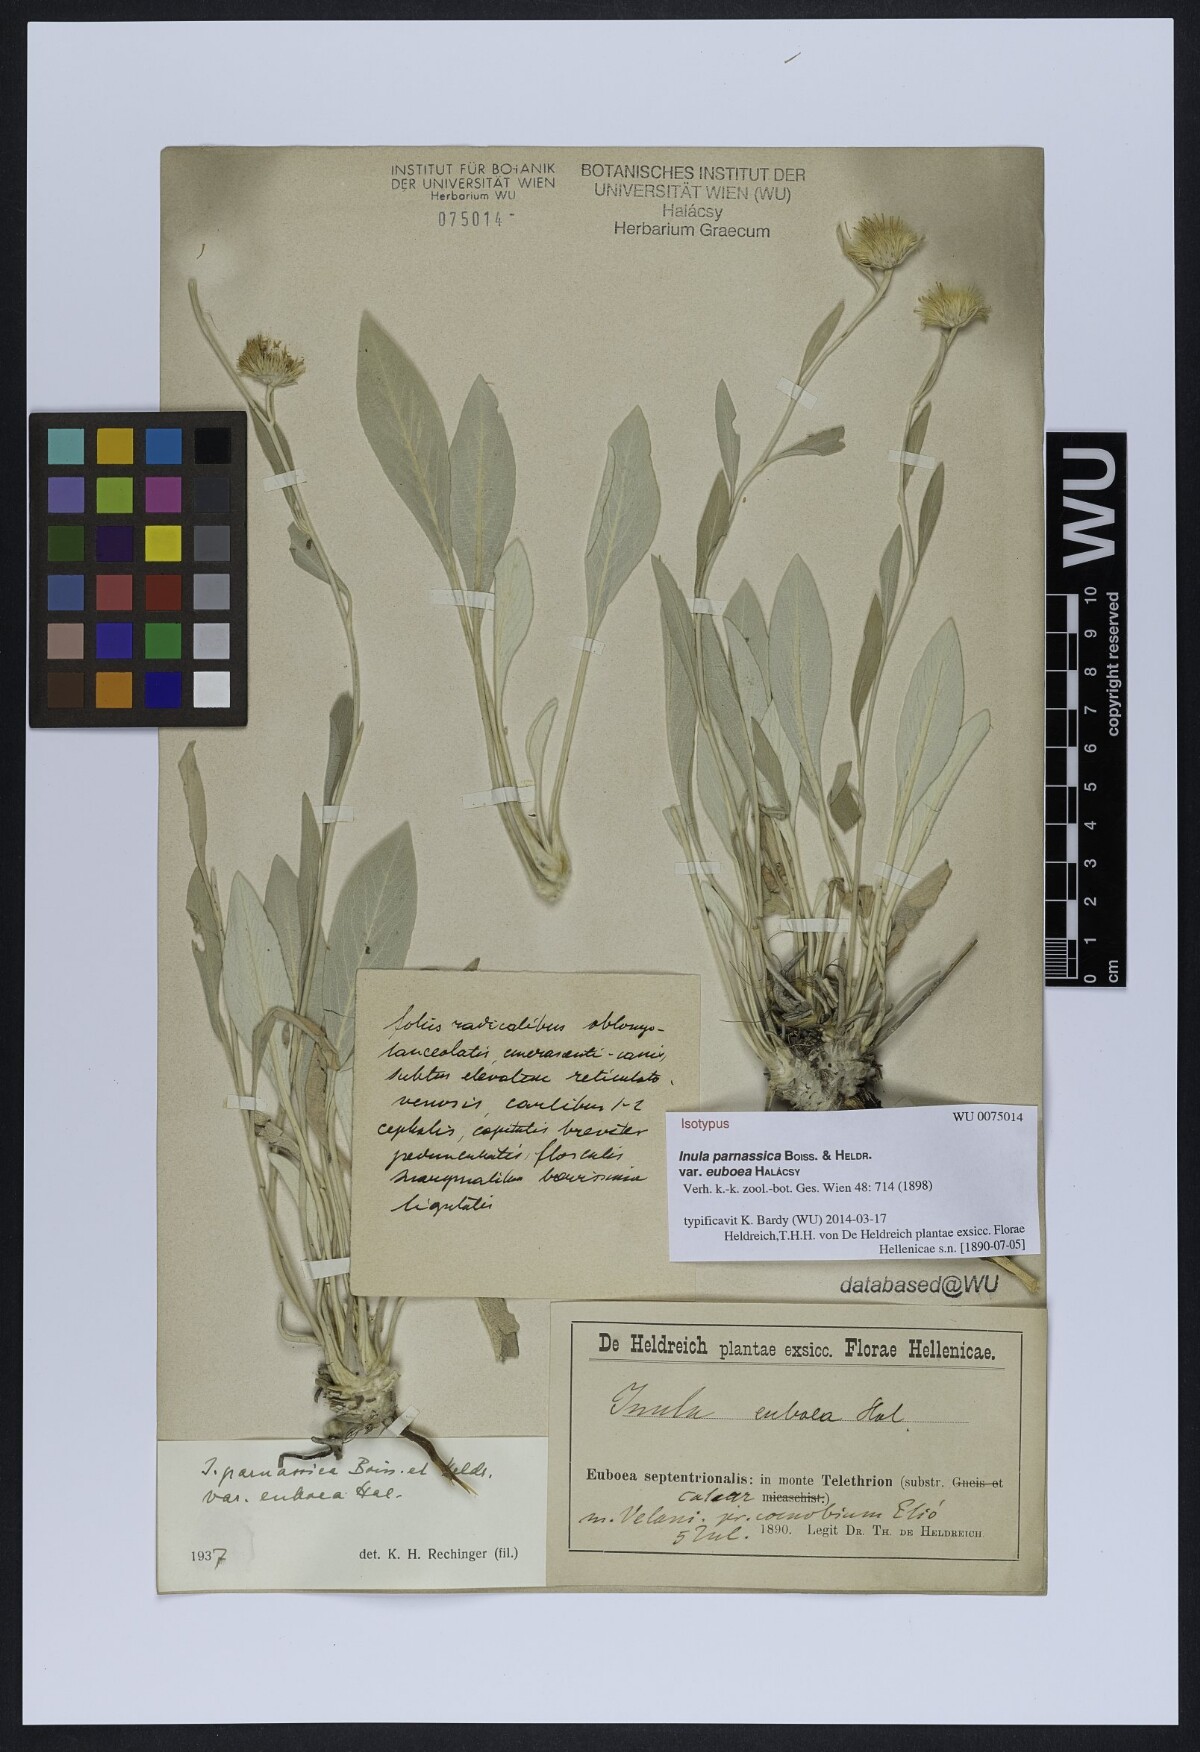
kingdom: Plantae
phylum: Tracheophyta
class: Magnoliopsida
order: Asterales
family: Asteraceae
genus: Pentanema
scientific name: Pentanema verbascifolium
